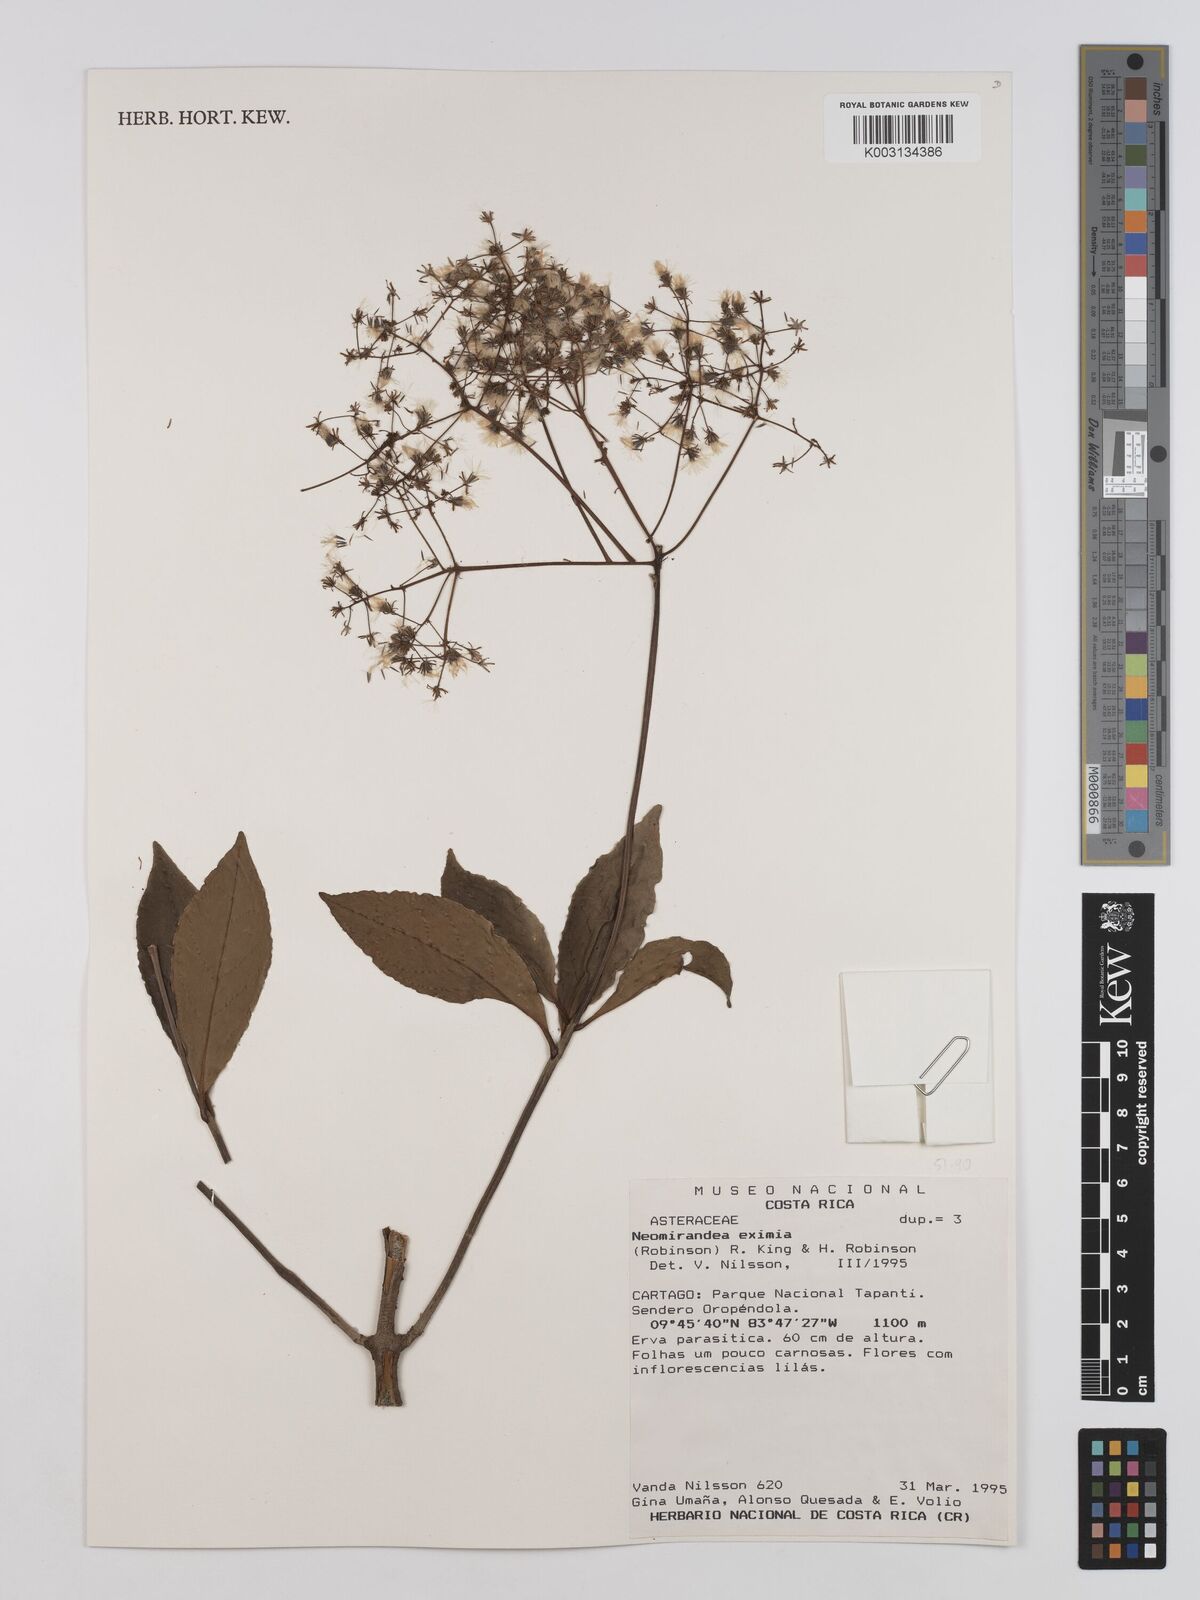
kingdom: Plantae
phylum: Tracheophyta
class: Magnoliopsida
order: Asterales
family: Asteraceae
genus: Neomirandea
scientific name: Neomirandea eximia
